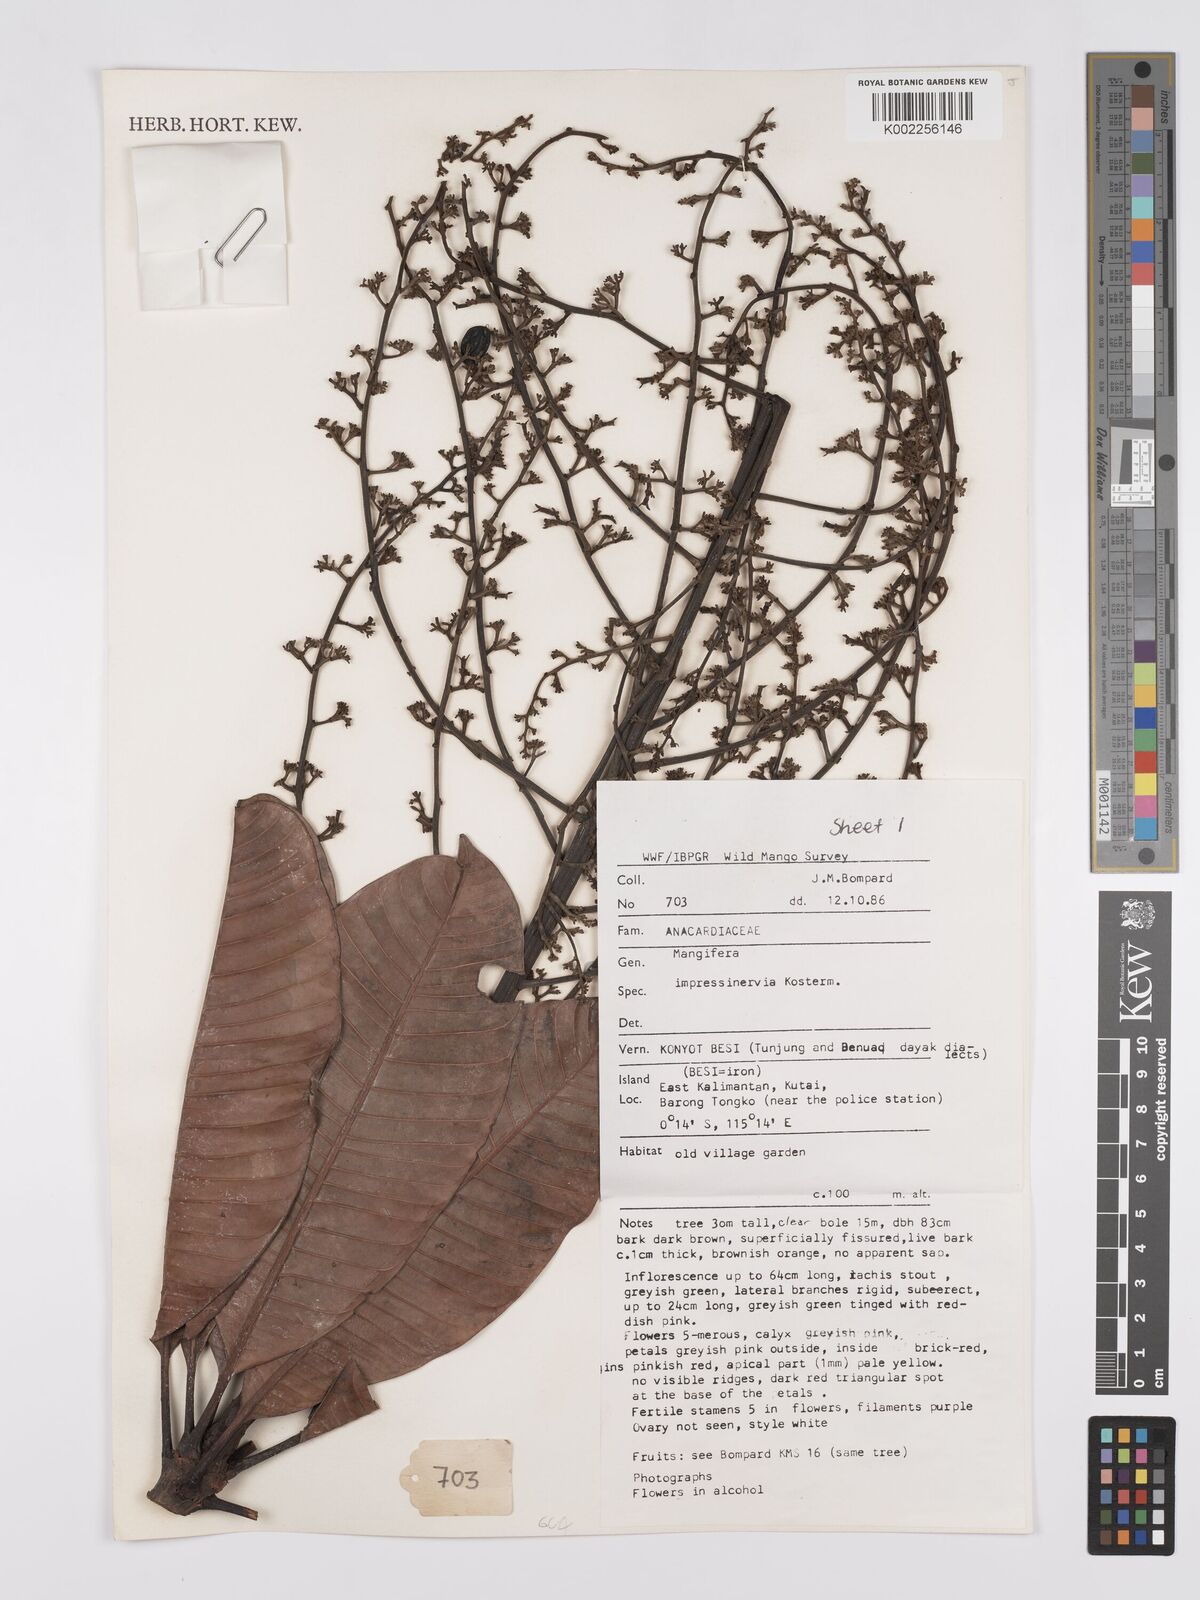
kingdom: Plantae
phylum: Tracheophyta
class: Magnoliopsida
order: Sapindales
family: Anacardiaceae
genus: Mangifera
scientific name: Mangifera
